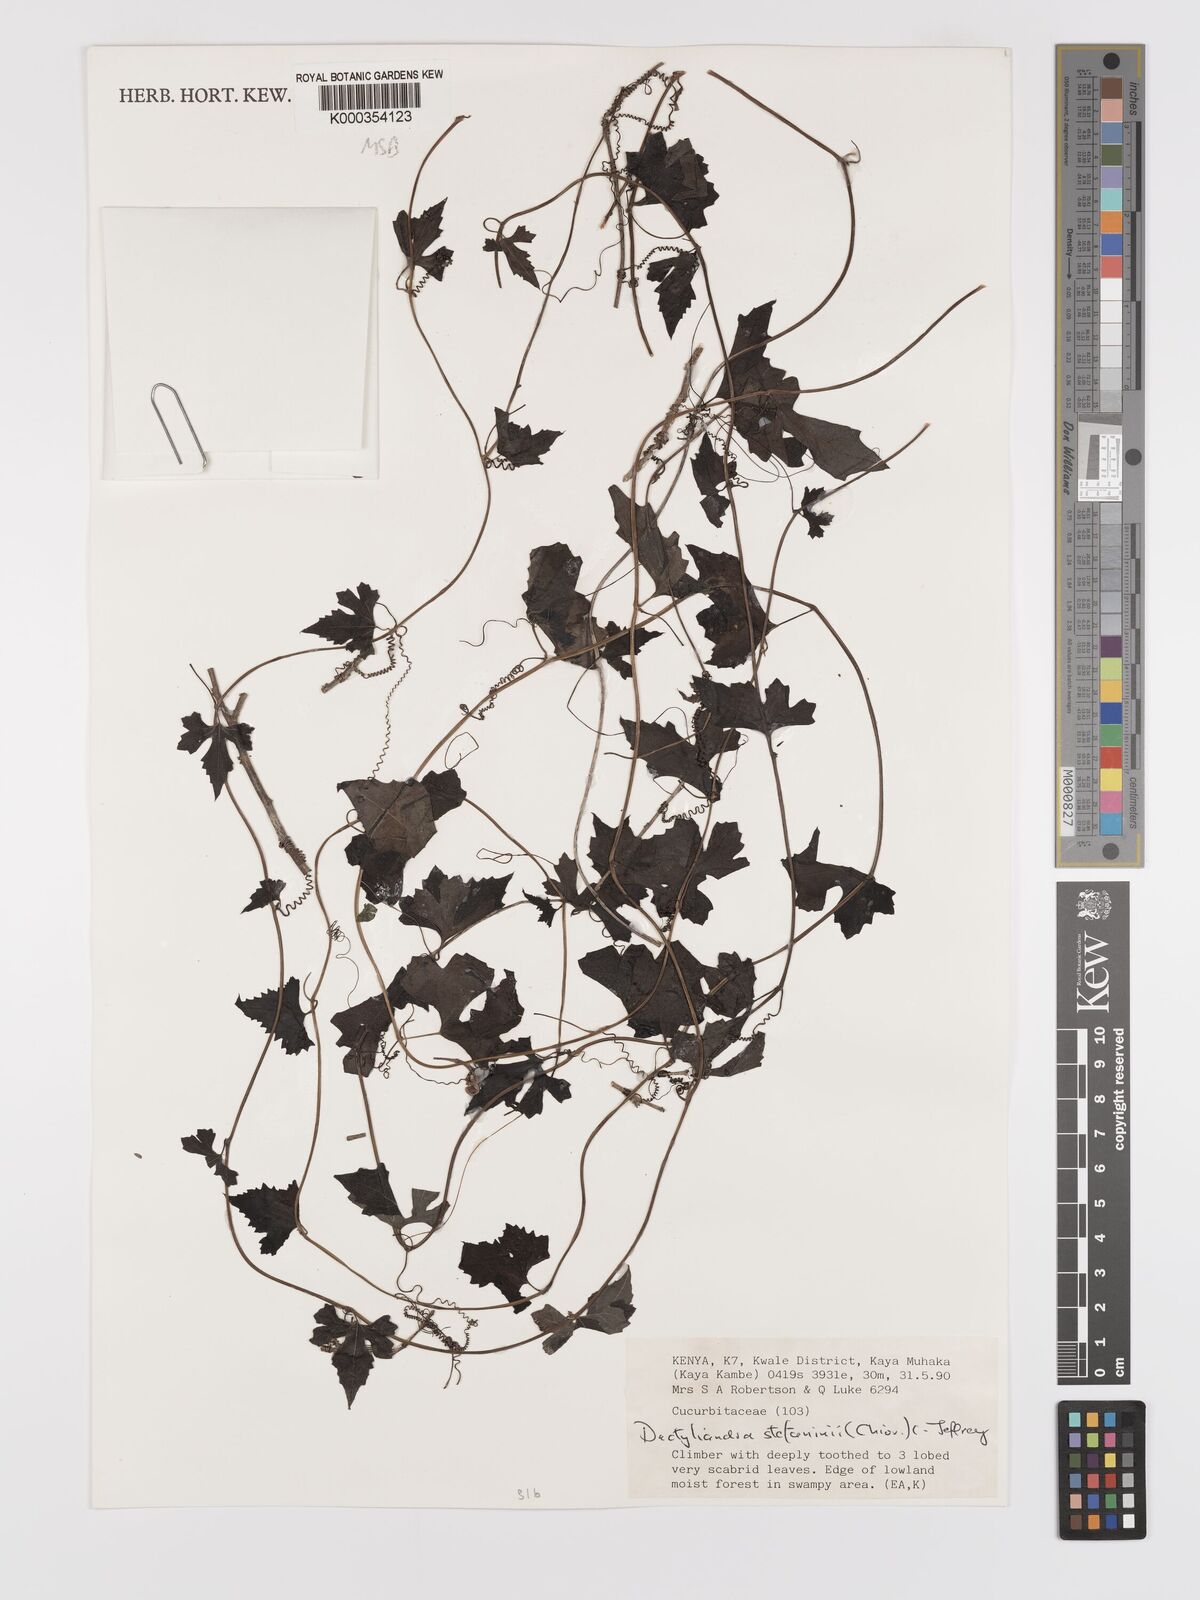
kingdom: Plantae
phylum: Tracheophyta
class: Magnoliopsida
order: Cucurbitales
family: Cucurbitaceae
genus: Dactyliandra
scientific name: Dactyliandra stefaninii
